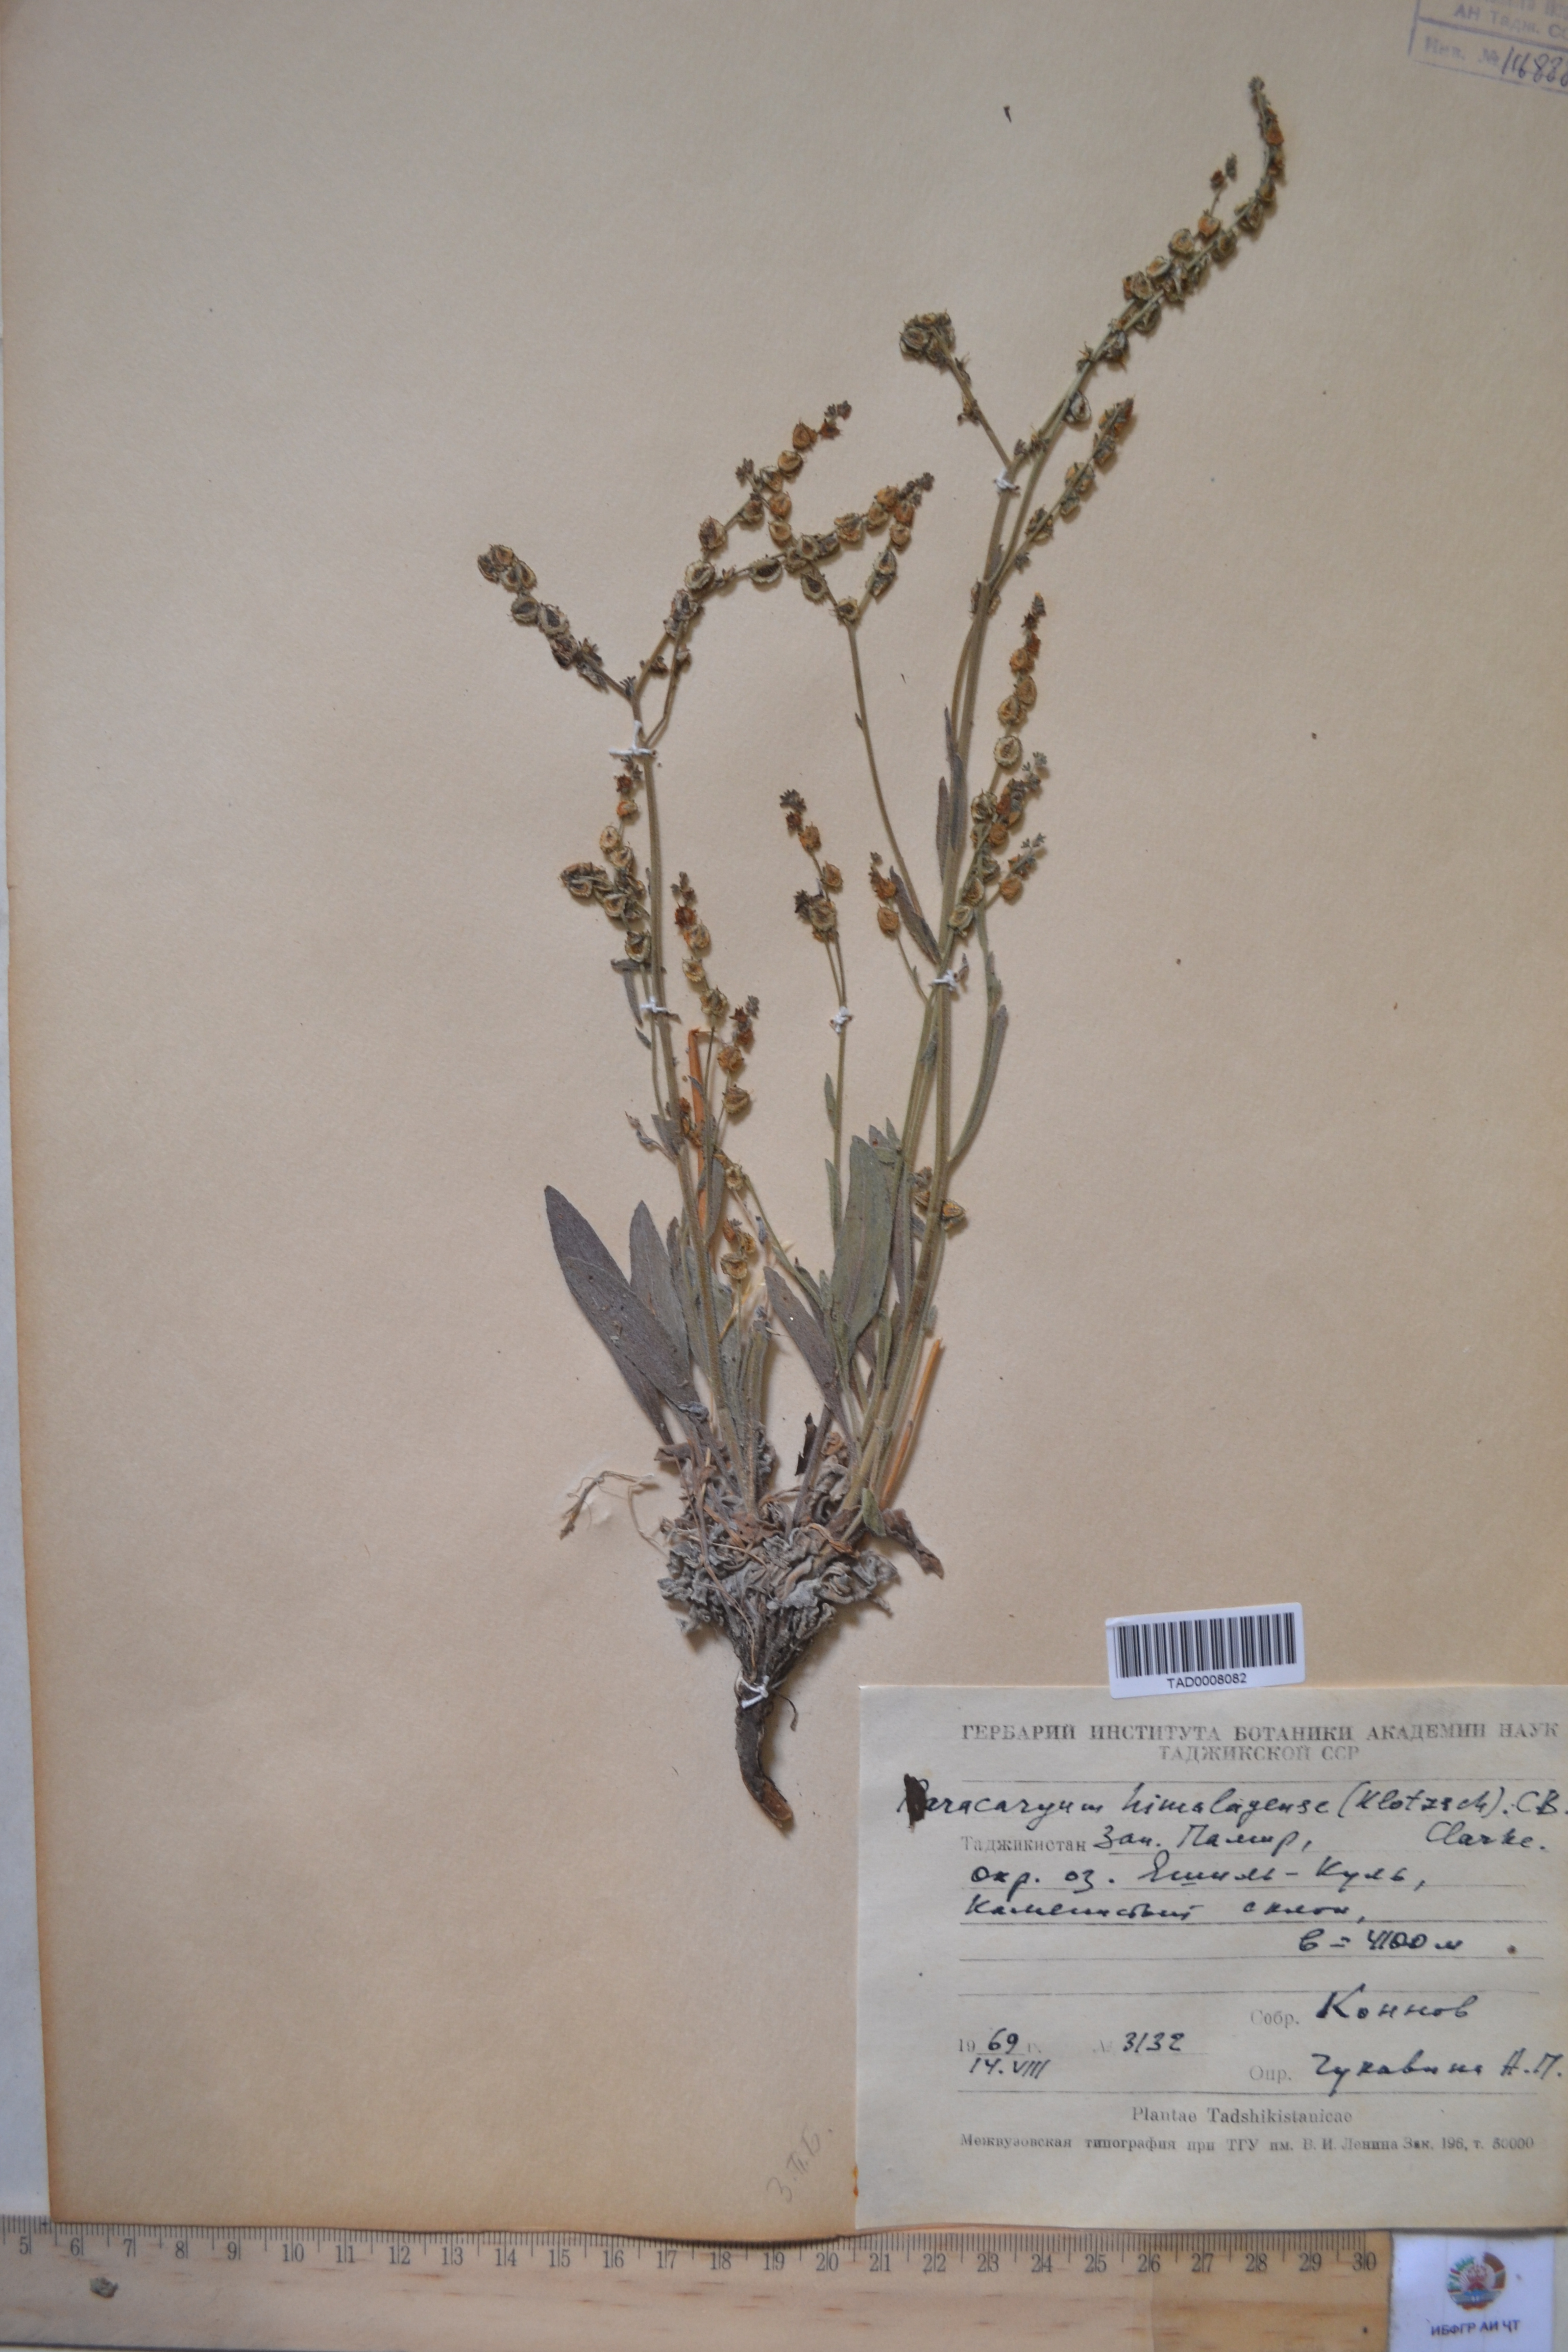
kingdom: Plantae
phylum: Tracheophyta
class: Magnoliopsida
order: Boraginales
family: Boraginaceae
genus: Paracaryum
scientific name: Paracaryum himalayense
